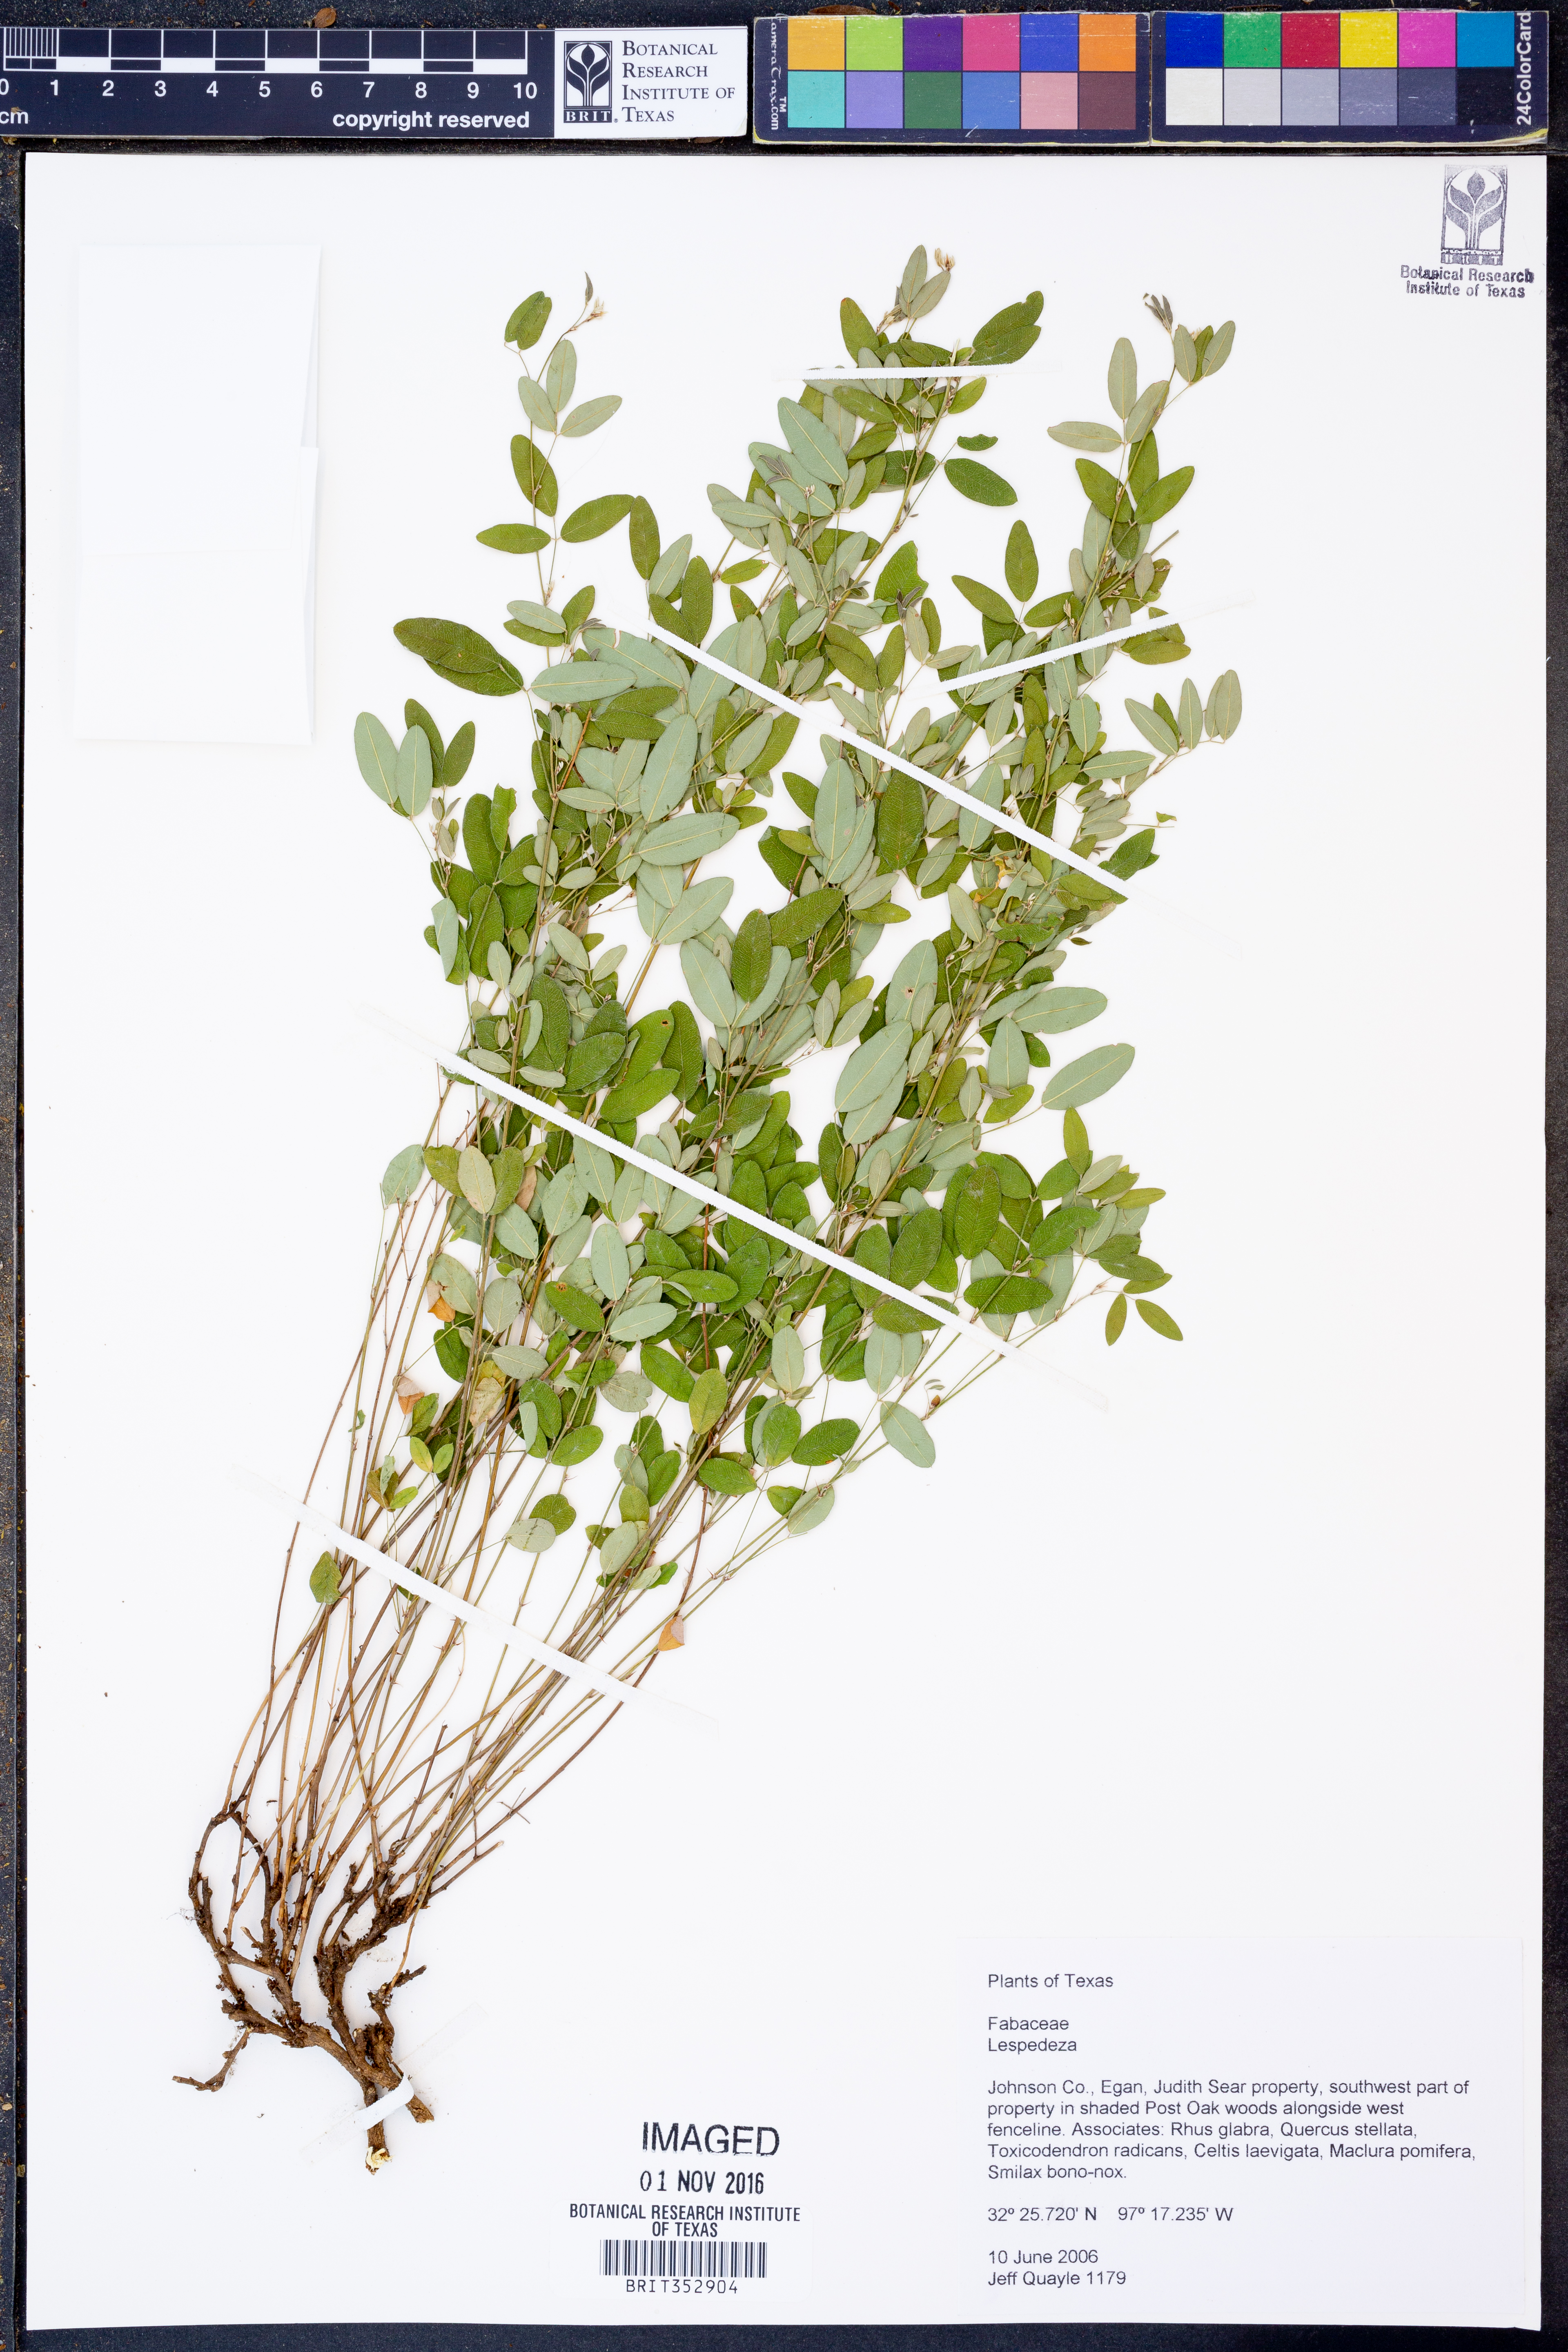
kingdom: Plantae
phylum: Tracheophyta
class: Magnoliopsida
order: Fabales
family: Fabaceae
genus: Lespedeza
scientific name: Lespedeza
